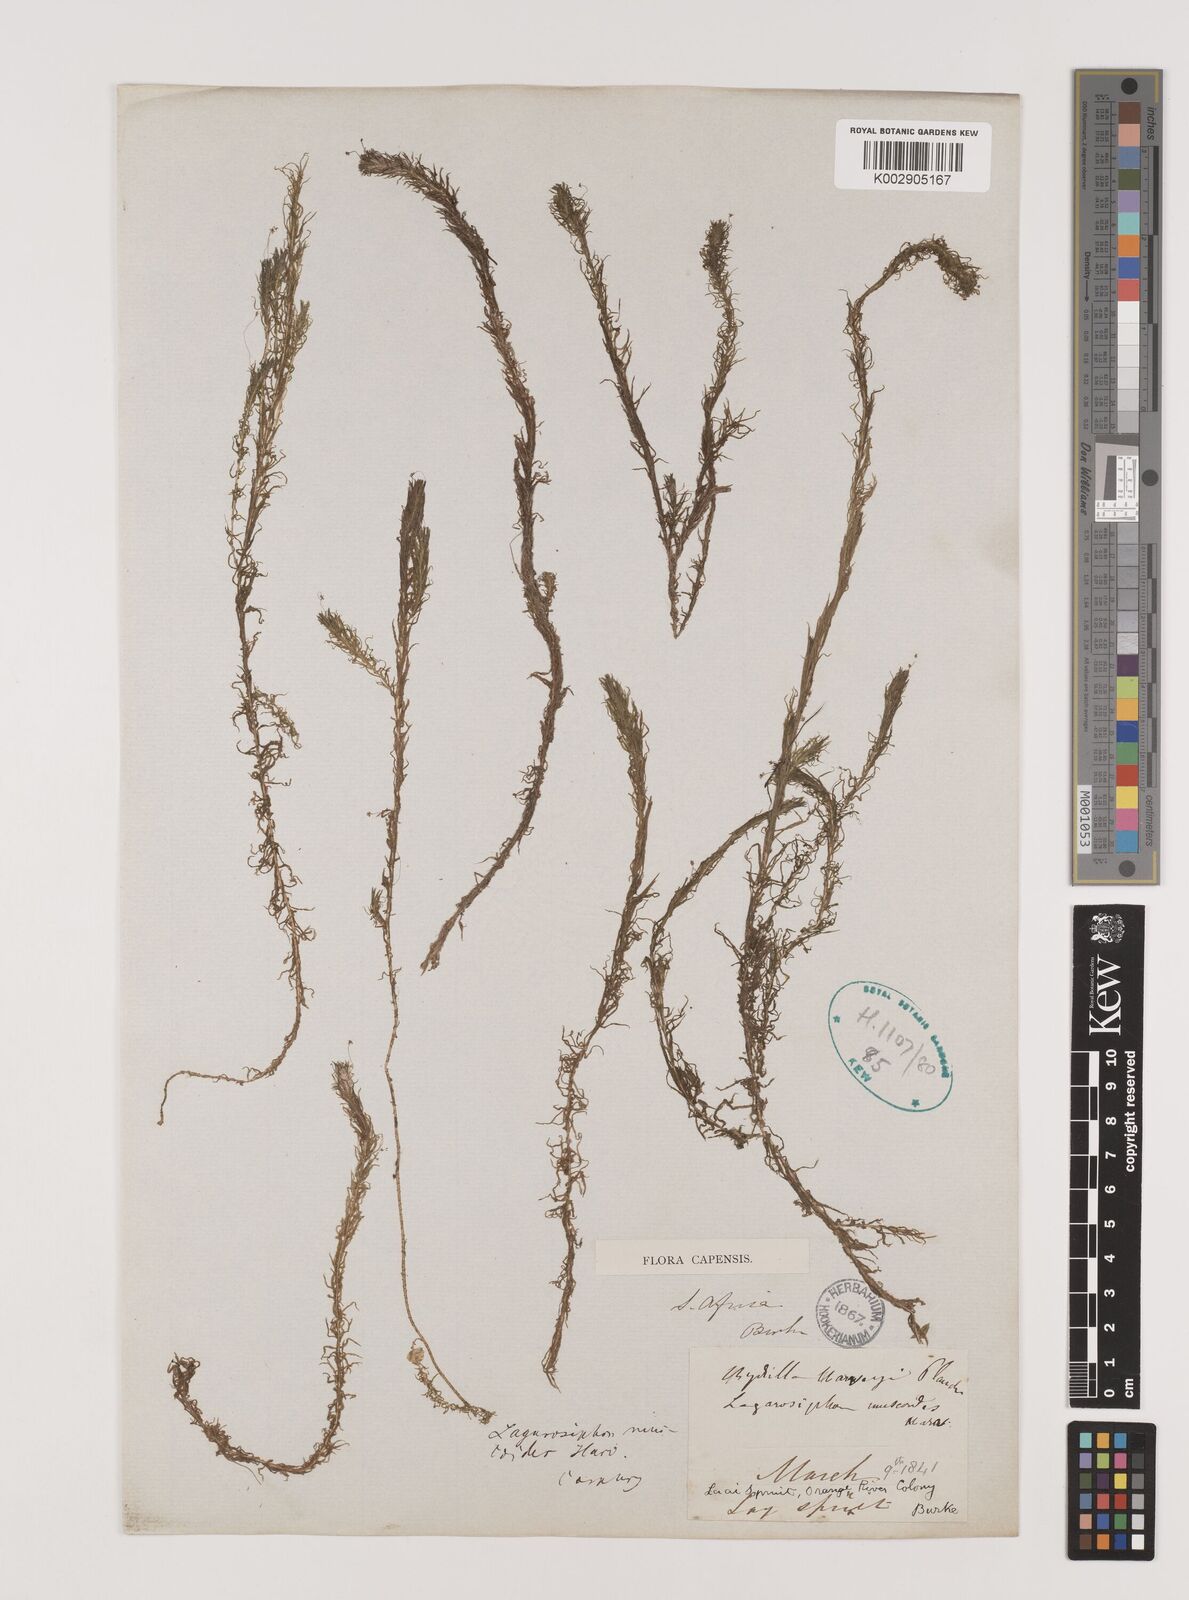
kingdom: Plantae
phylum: Tracheophyta
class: Liliopsida
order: Alismatales
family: Hydrocharitaceae
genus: Lagarosiphon
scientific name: Lagarosiphon muscoides
